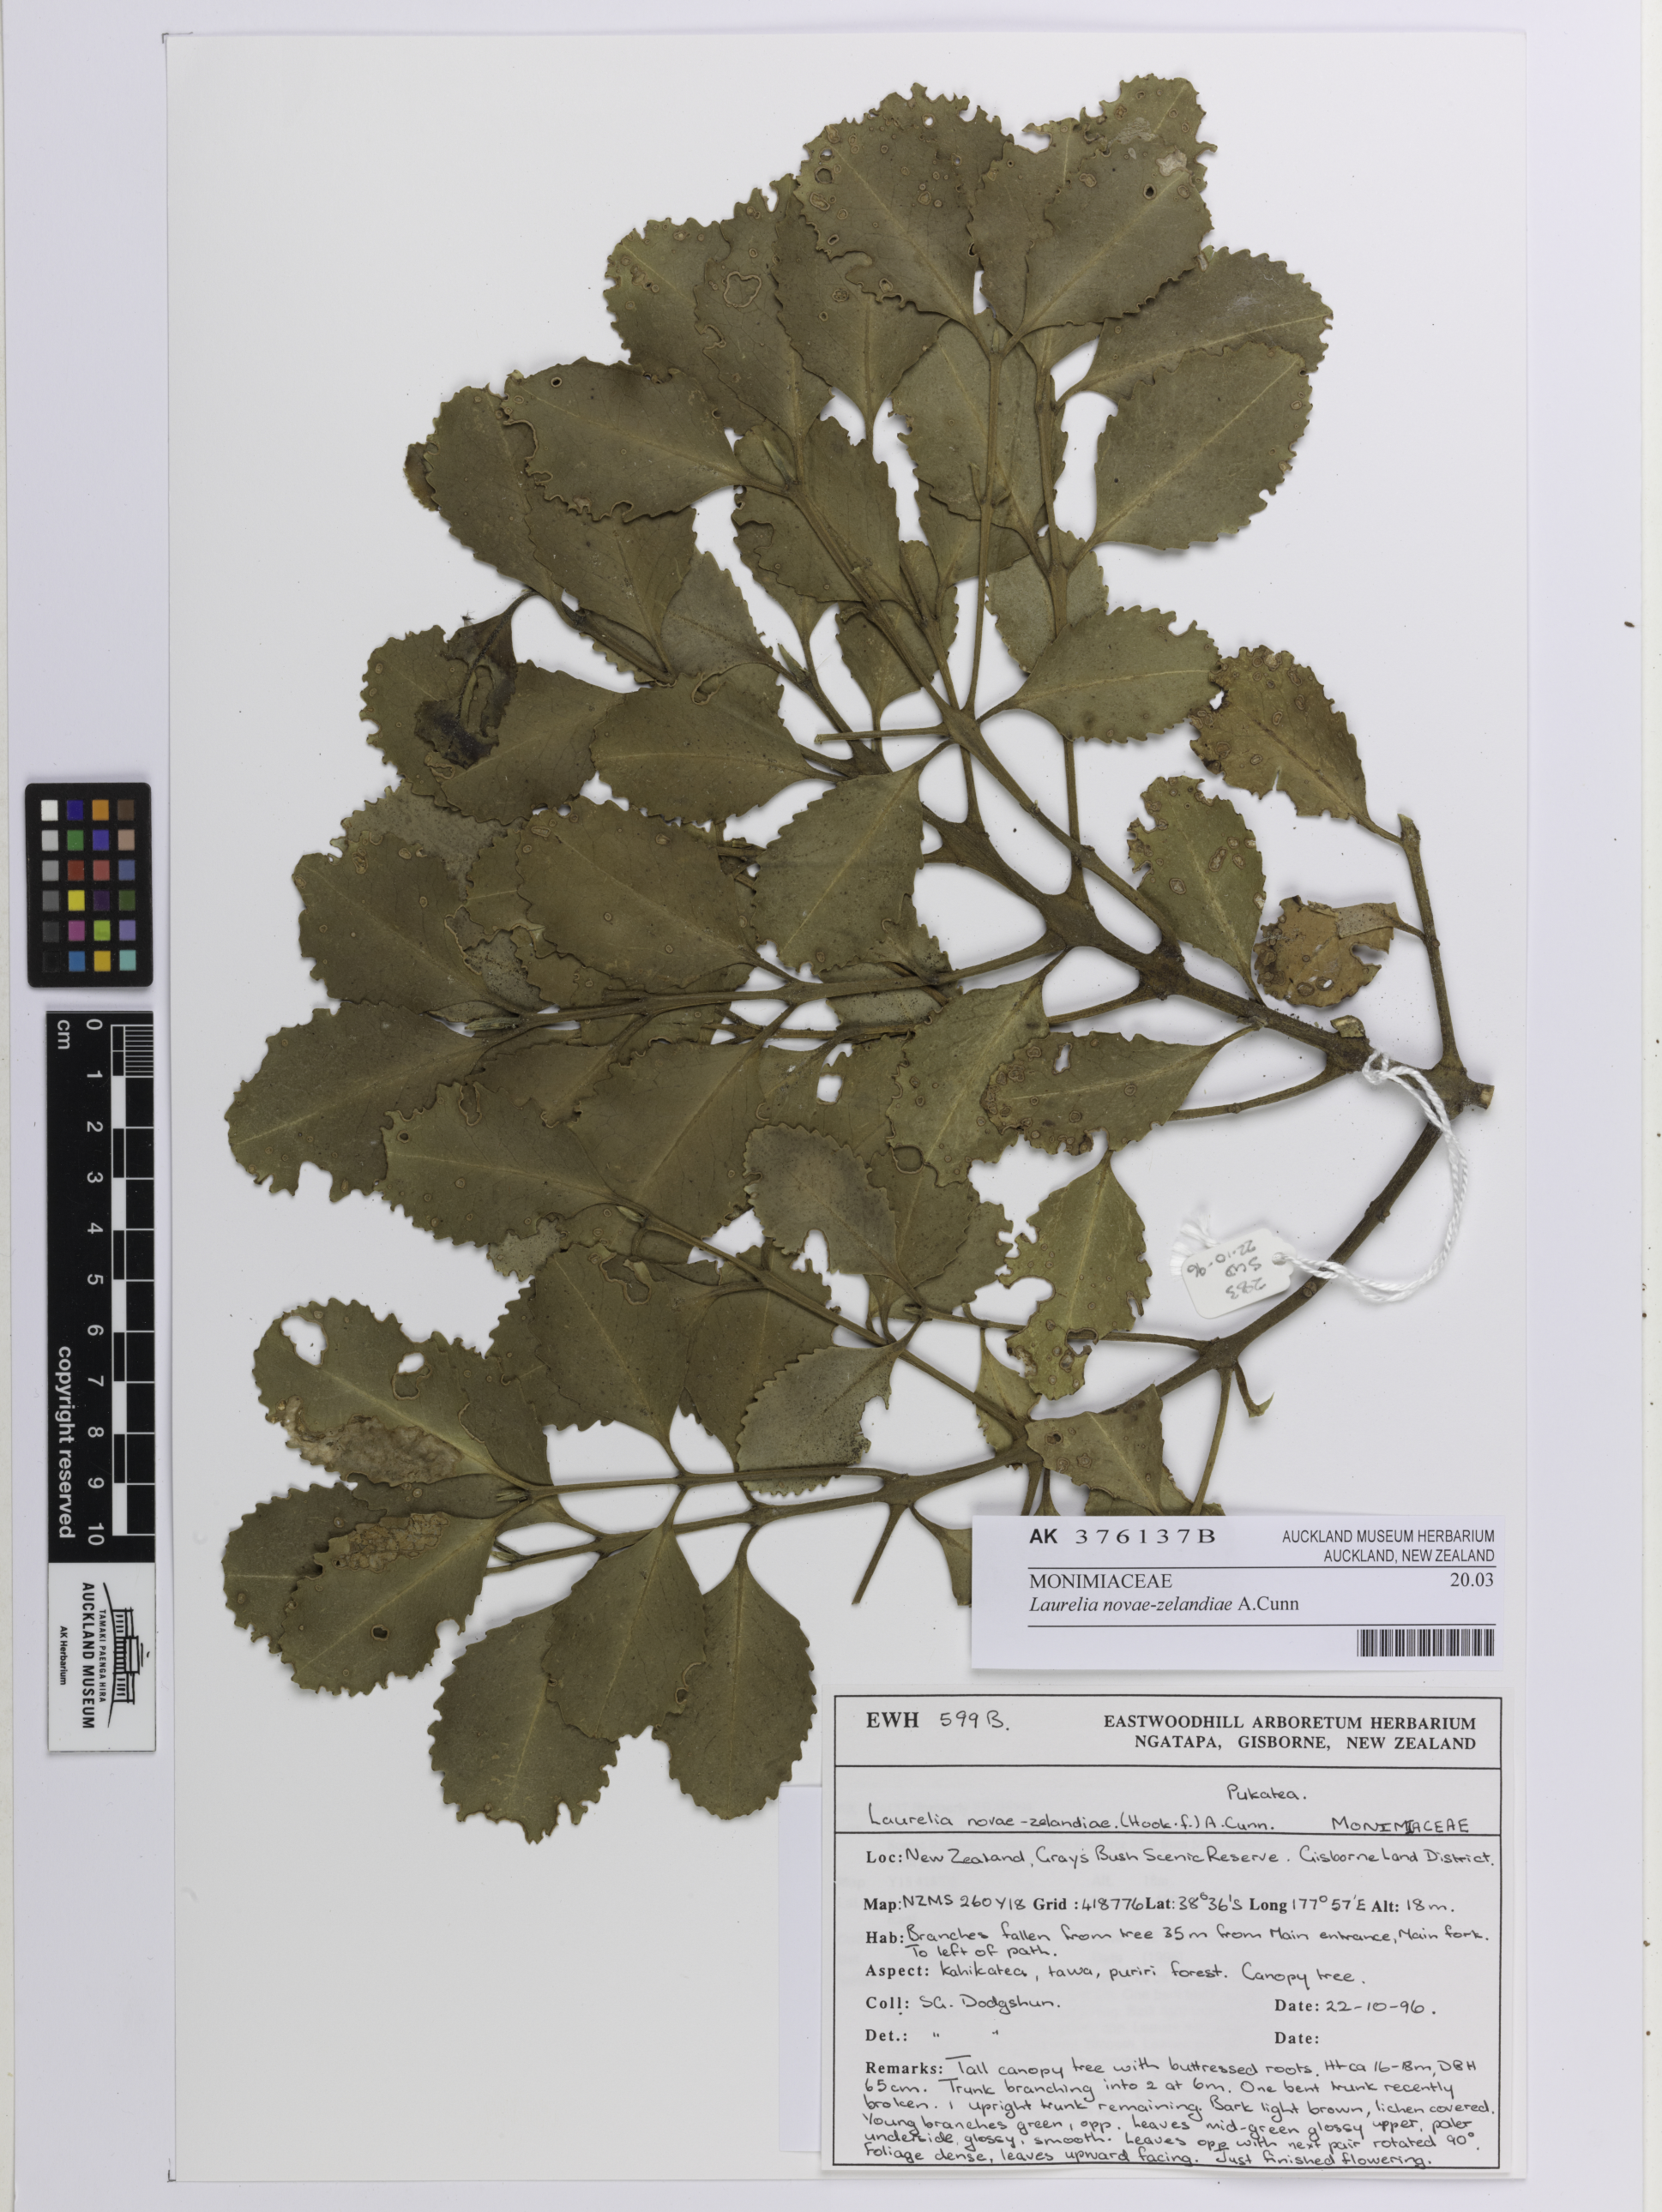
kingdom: Plantae
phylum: Tracheophyta
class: Magnoliopsida
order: Laurales
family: Atherospermataceae
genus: Laurelia
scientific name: Laurelia novae-zelandiae
